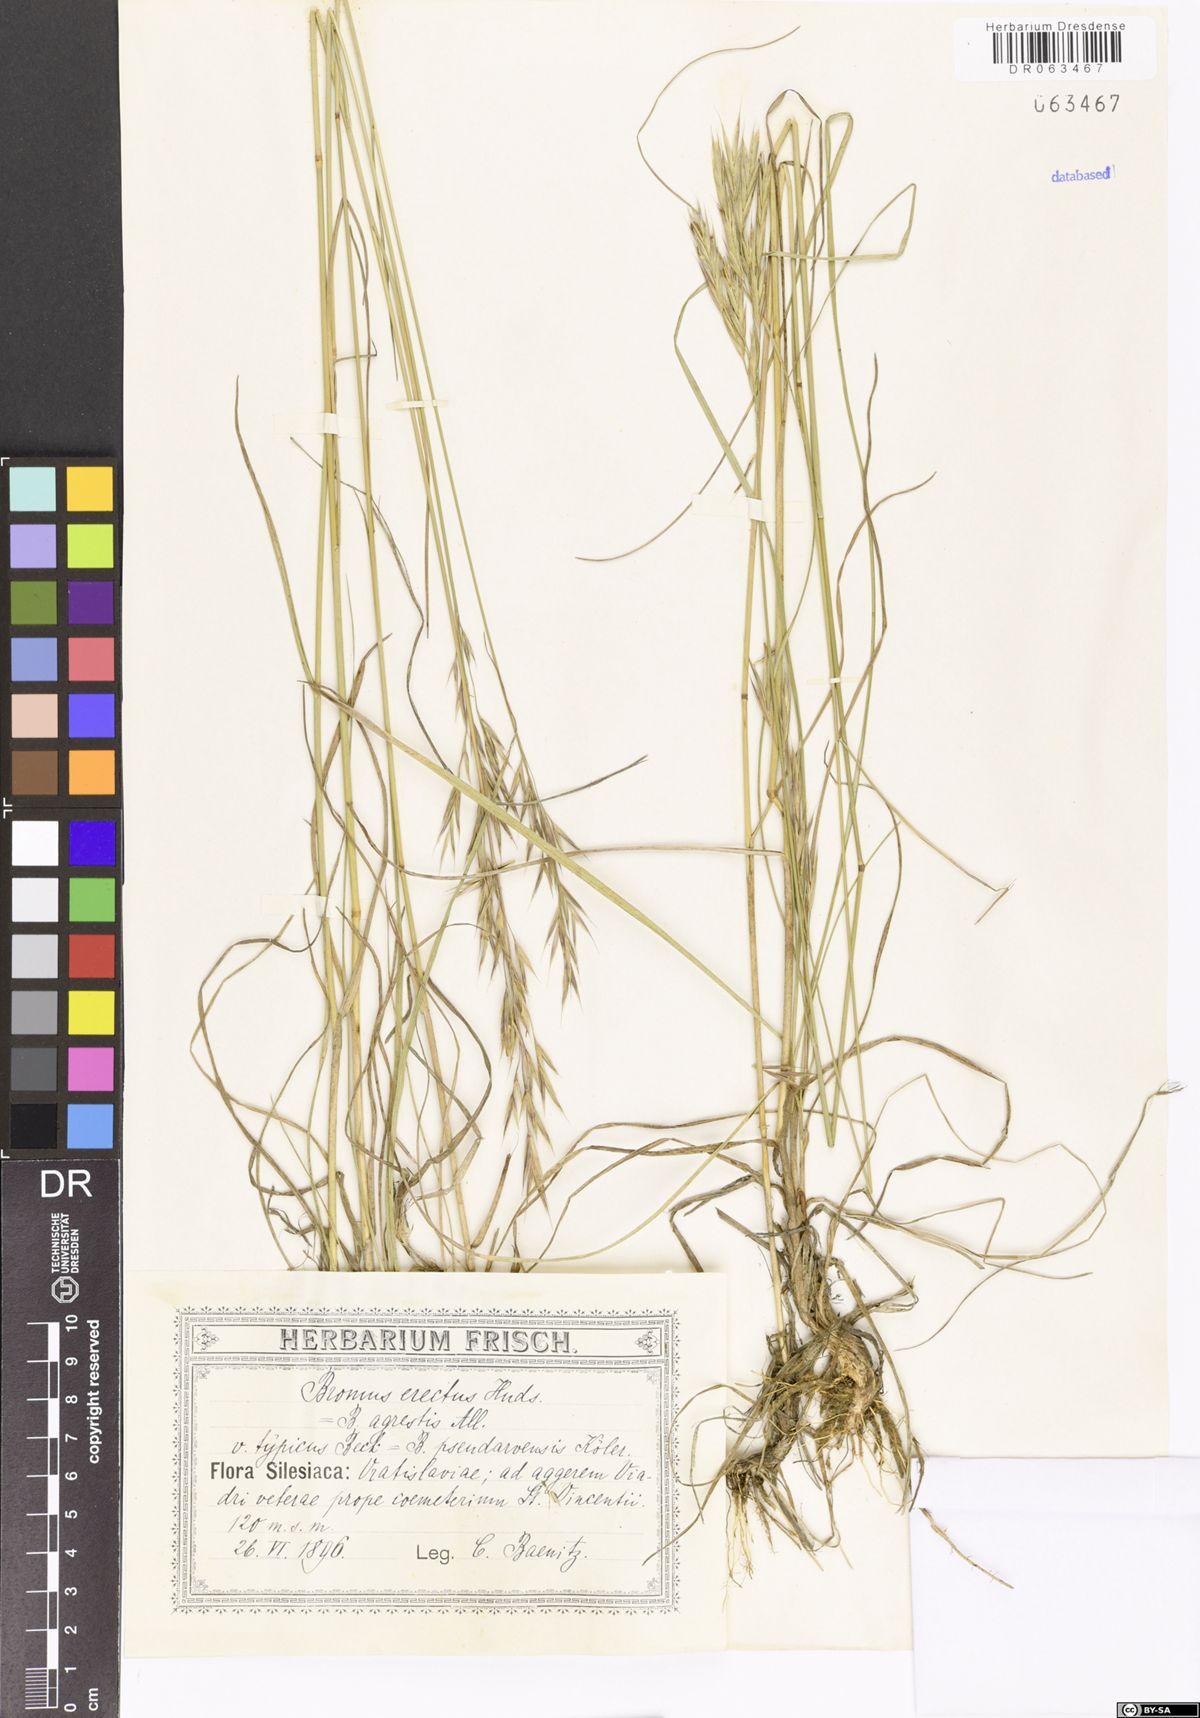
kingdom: Plantae
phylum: Tracheophyta
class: Liliopsida
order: Poales
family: Poaceae
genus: Bromus
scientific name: Bromus erectus
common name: Erect brome
